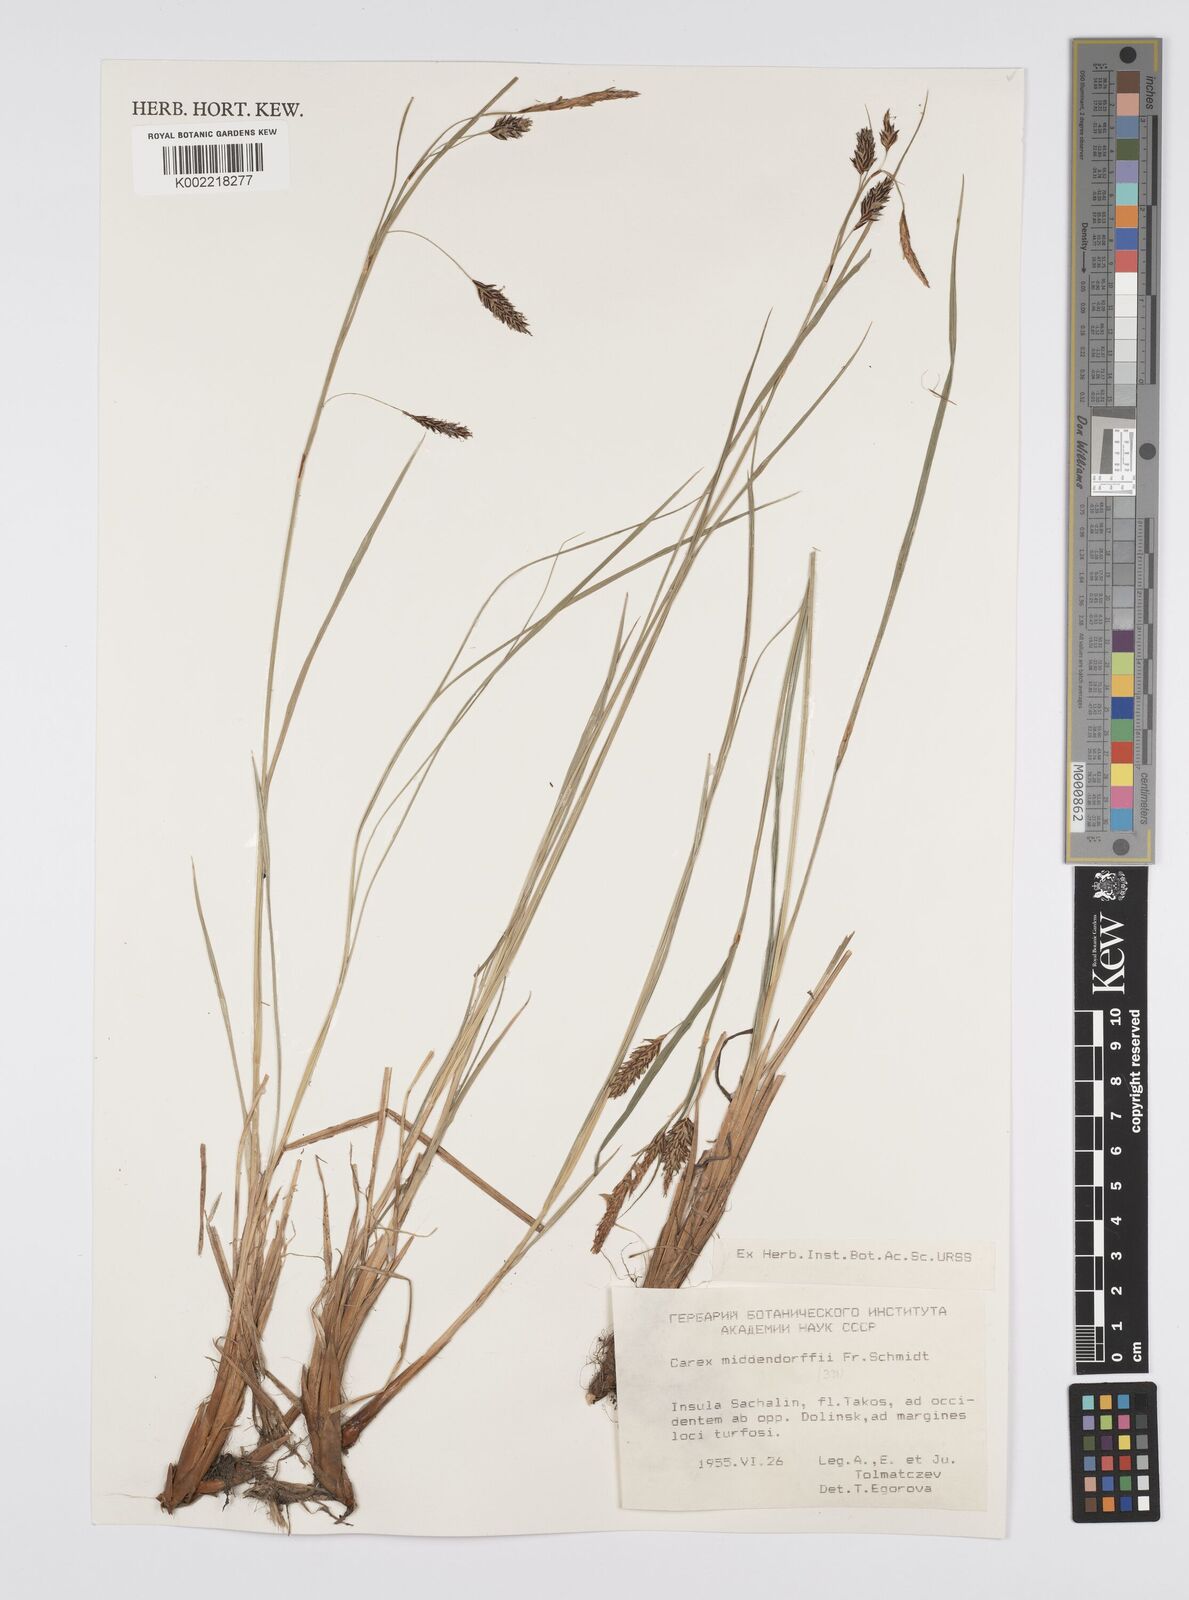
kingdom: Plantae
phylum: Tracheophyta
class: Liliopsida
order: Poales
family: Cyperaceae
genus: Carex
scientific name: Carex middendorffii
